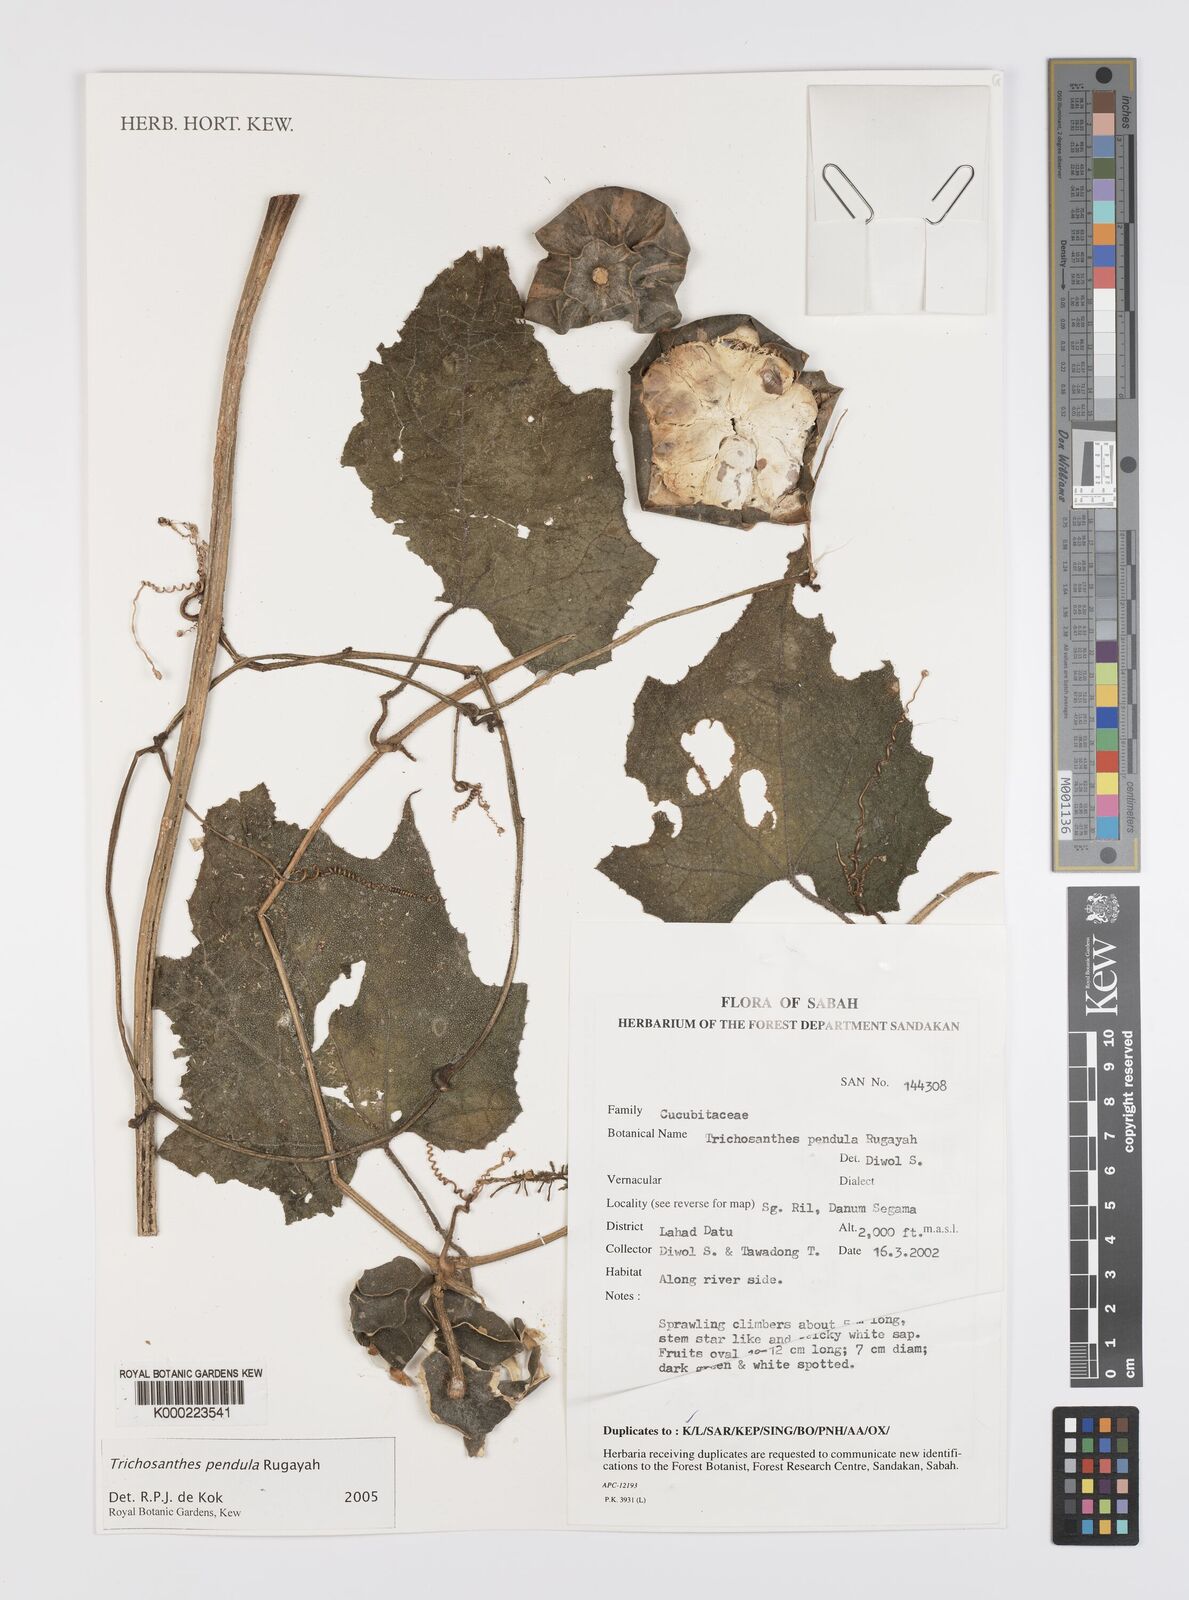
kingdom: Plantae
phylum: Tracheophyta
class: Magnoliopsida
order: Cucurbitales
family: Cucurbitaceae
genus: Trichosanthes
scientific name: Trichosanthes pendula
